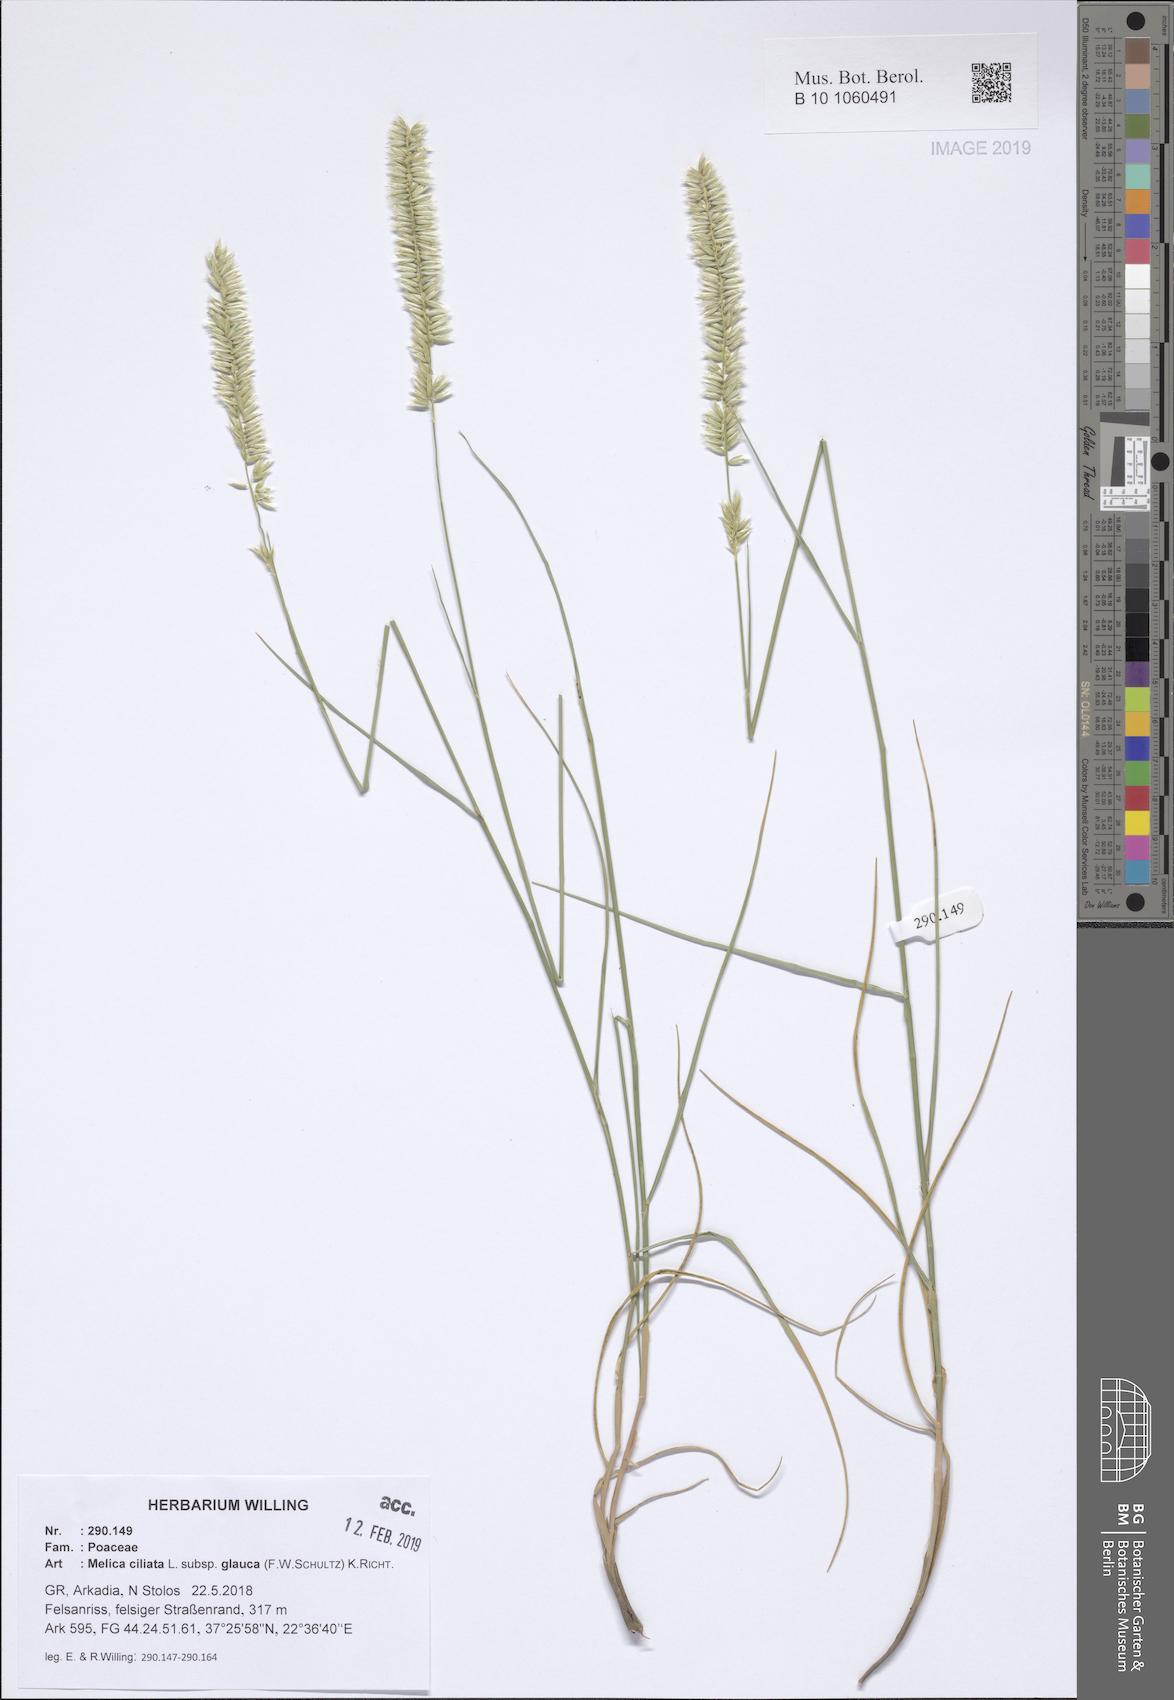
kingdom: Plantae
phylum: Tracheophyta
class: Liliopsida
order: Poales
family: Poaceae
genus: Melica
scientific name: Melica ciliata
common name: Hairy melicgrass
